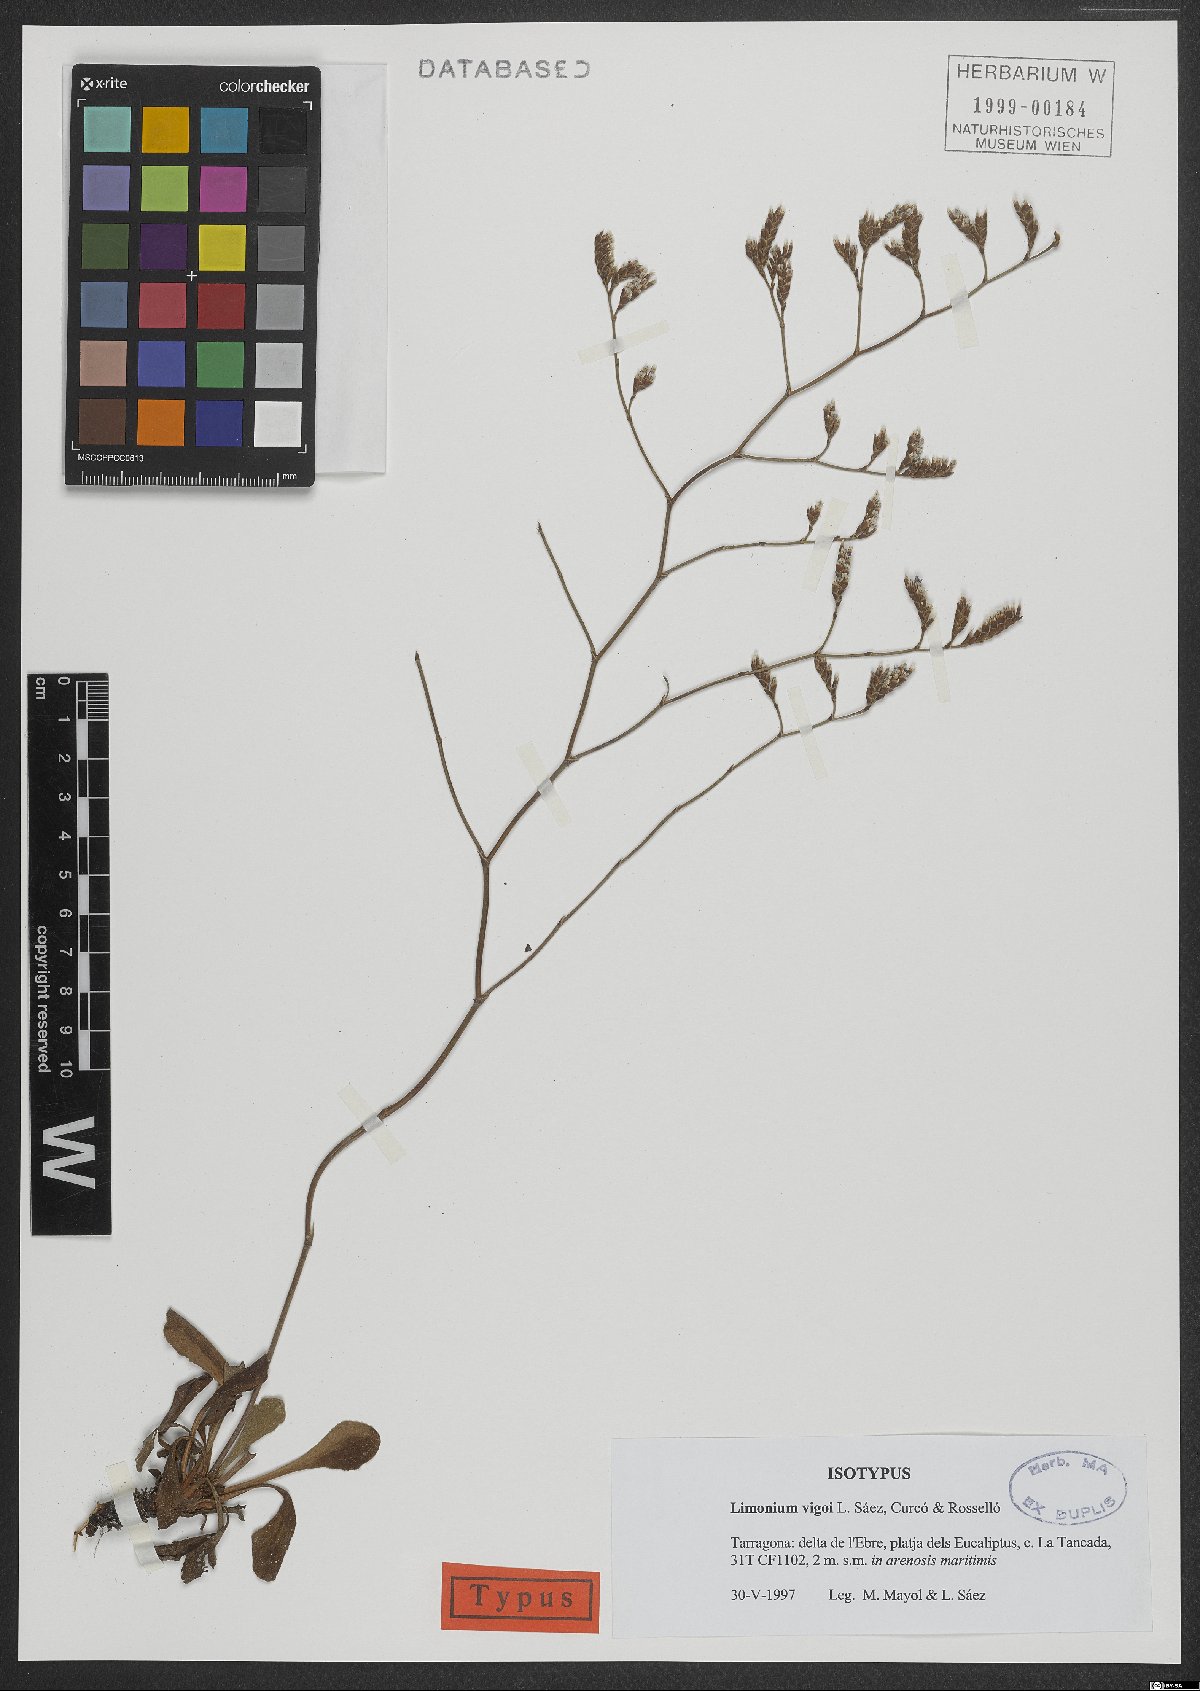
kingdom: Plantae
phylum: Tracheophyta
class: Magnoliopsida
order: Caryophyllales
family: Plumbaginaceae
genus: Limonium
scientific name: Limonium vigoi
